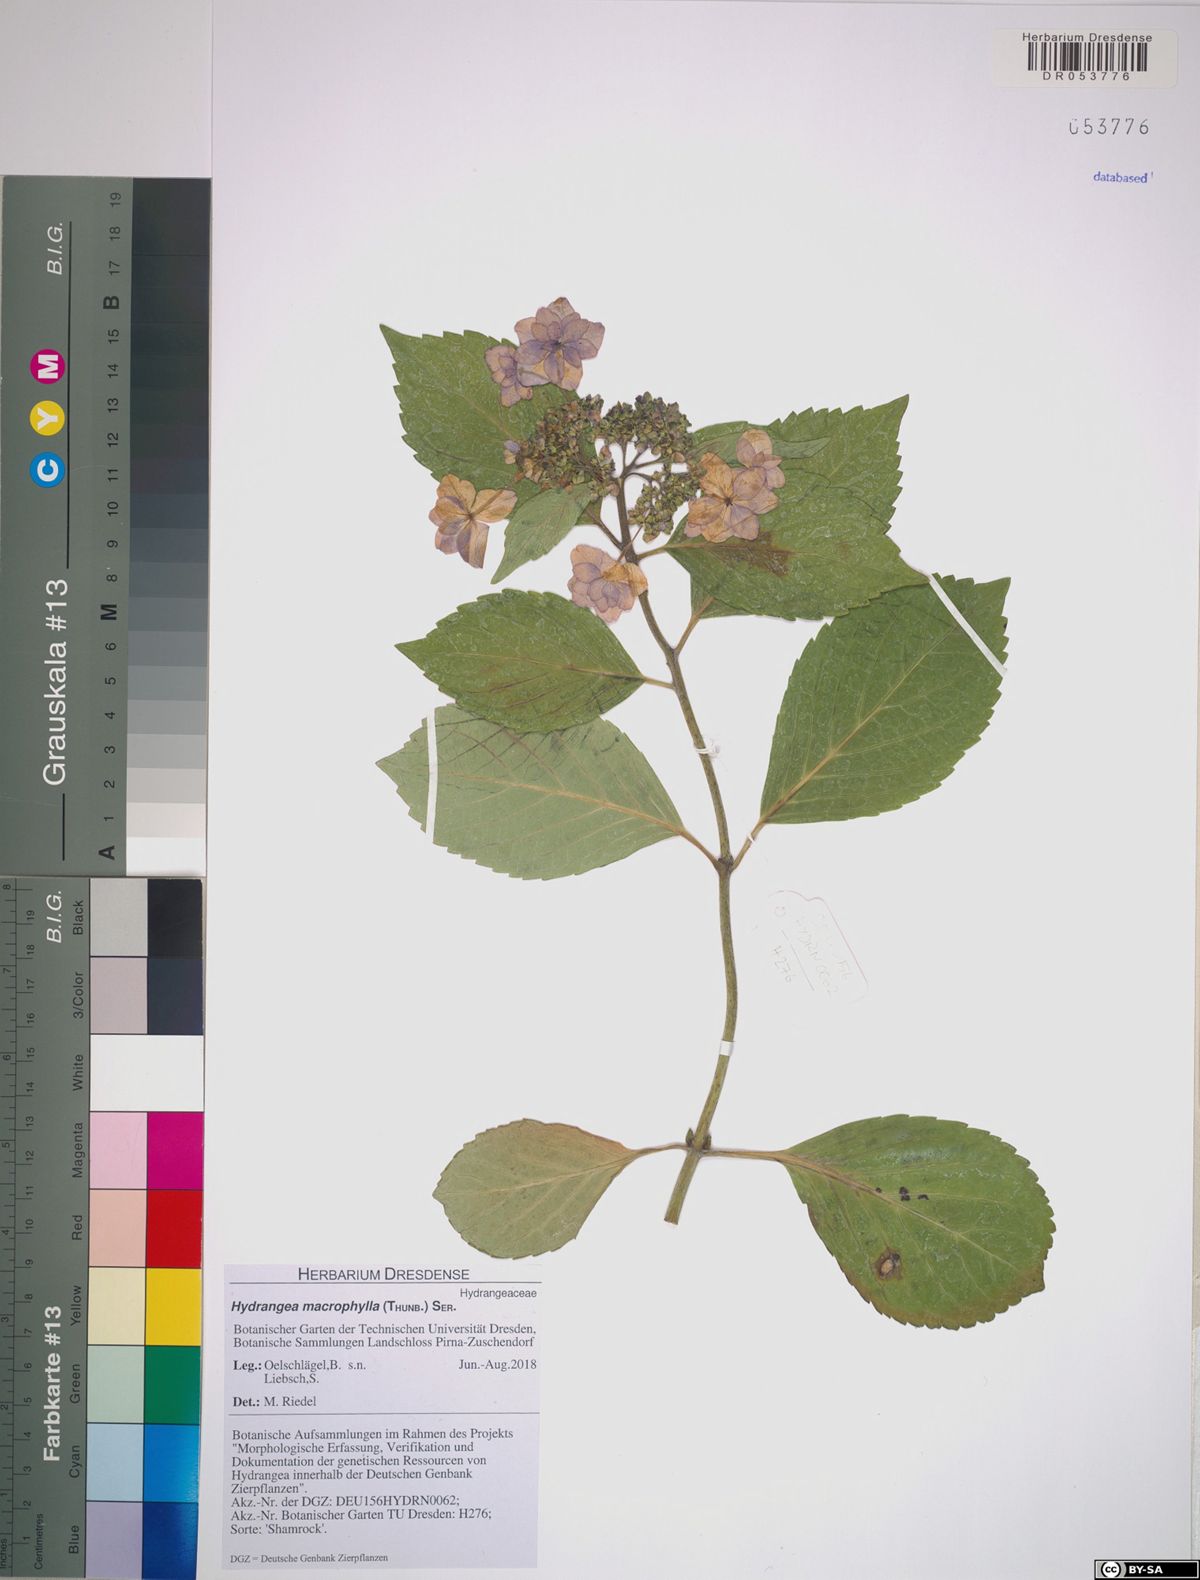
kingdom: Plantae
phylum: Tracheophyta
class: Magnoliopsida
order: Cornales
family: Hydrangeaceae
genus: Hydrangea
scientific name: Hydrangea macrophylla
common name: Hydrangea
